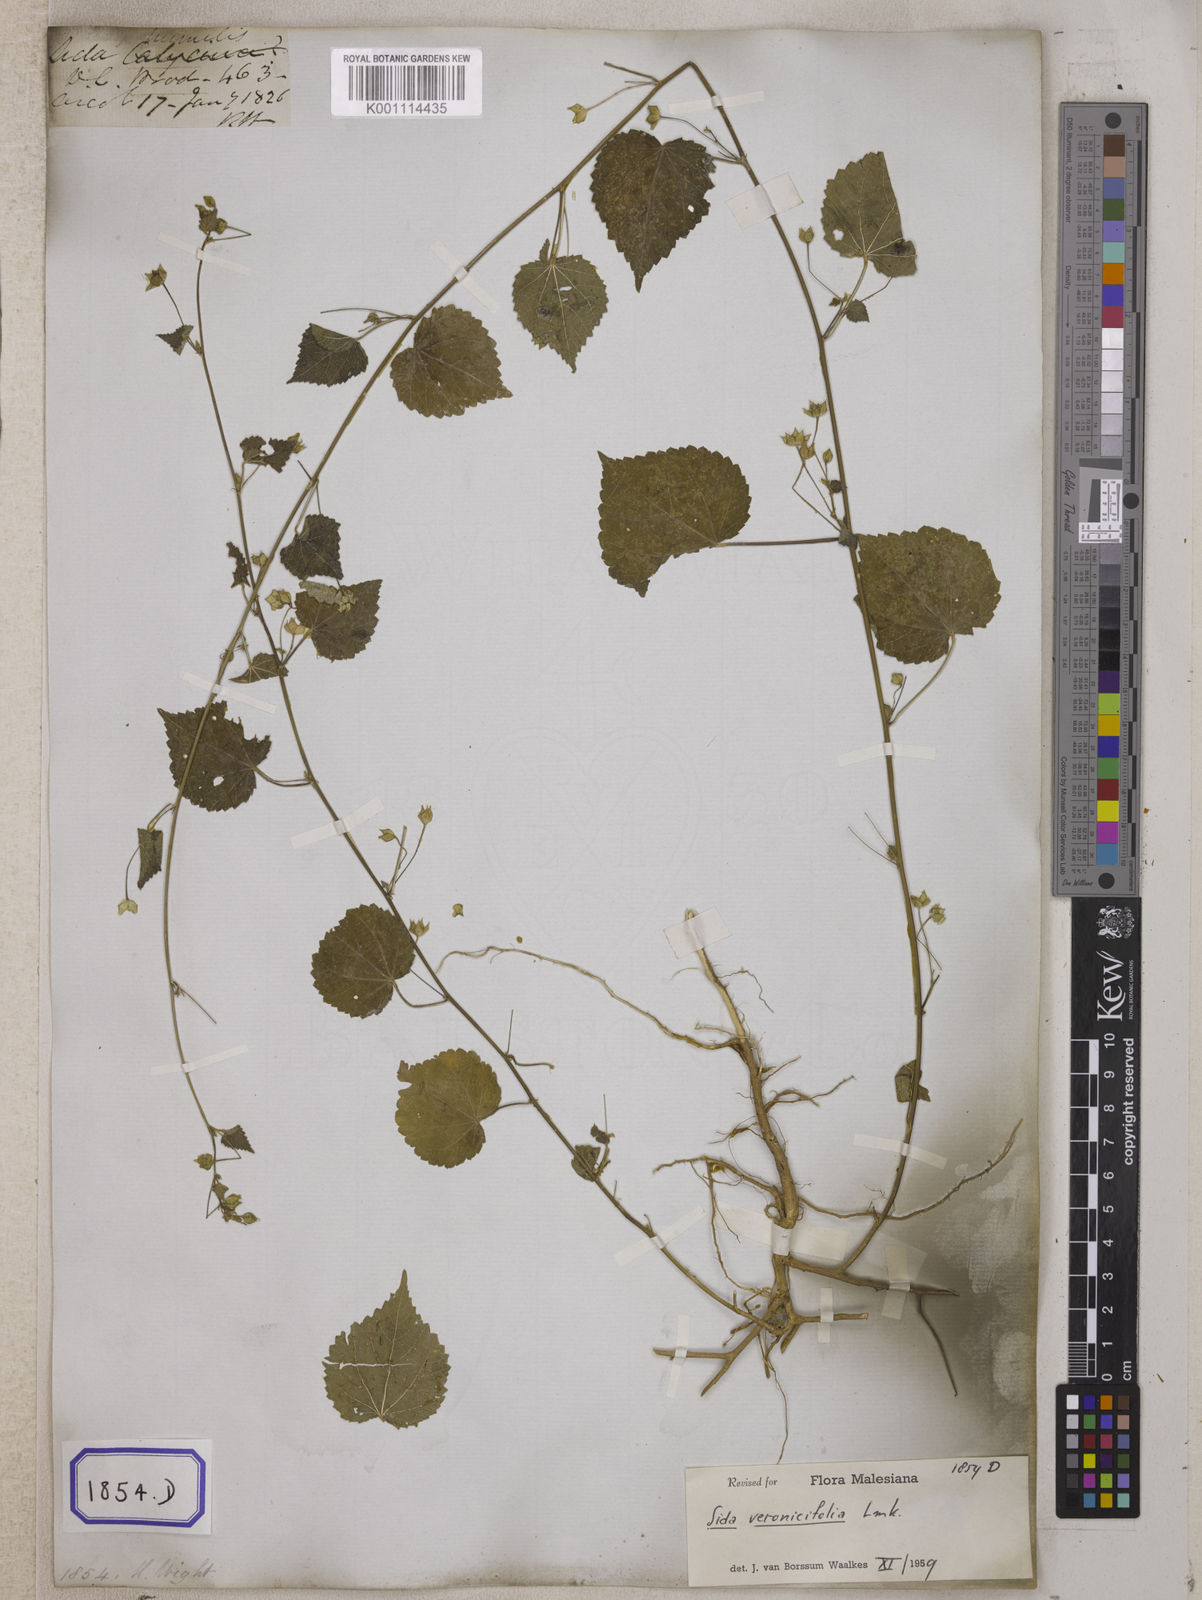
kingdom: Plantae
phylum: Tracheophyta
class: Magnoliopsida
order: Malvales
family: Malvaceae
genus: Sida
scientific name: Sida cordata
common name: Long-stalk sida
